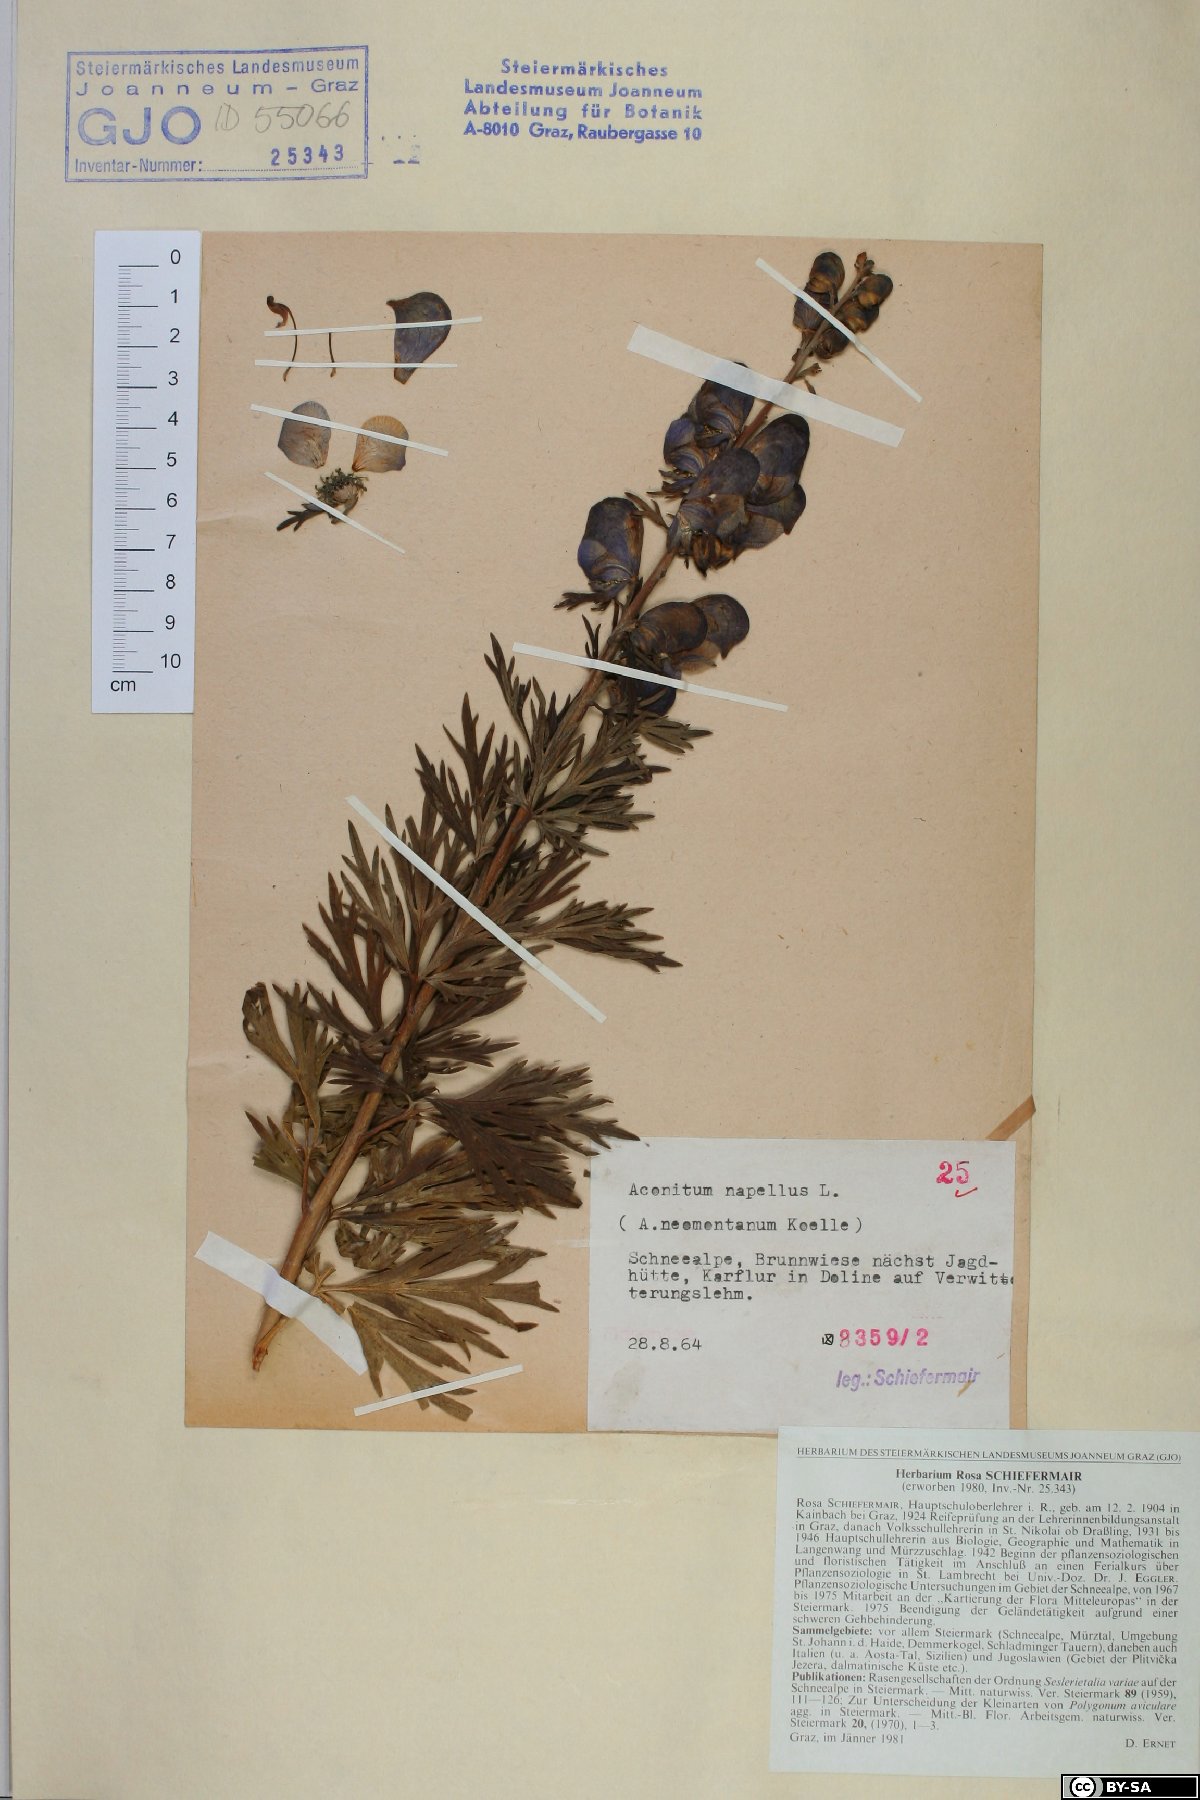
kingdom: Plantae
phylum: Tracheophyta
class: Magnoliopsida
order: Ranunculales
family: Ranunculaceae
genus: Aconitum
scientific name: Aconitum napellus
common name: Garden monkshood
